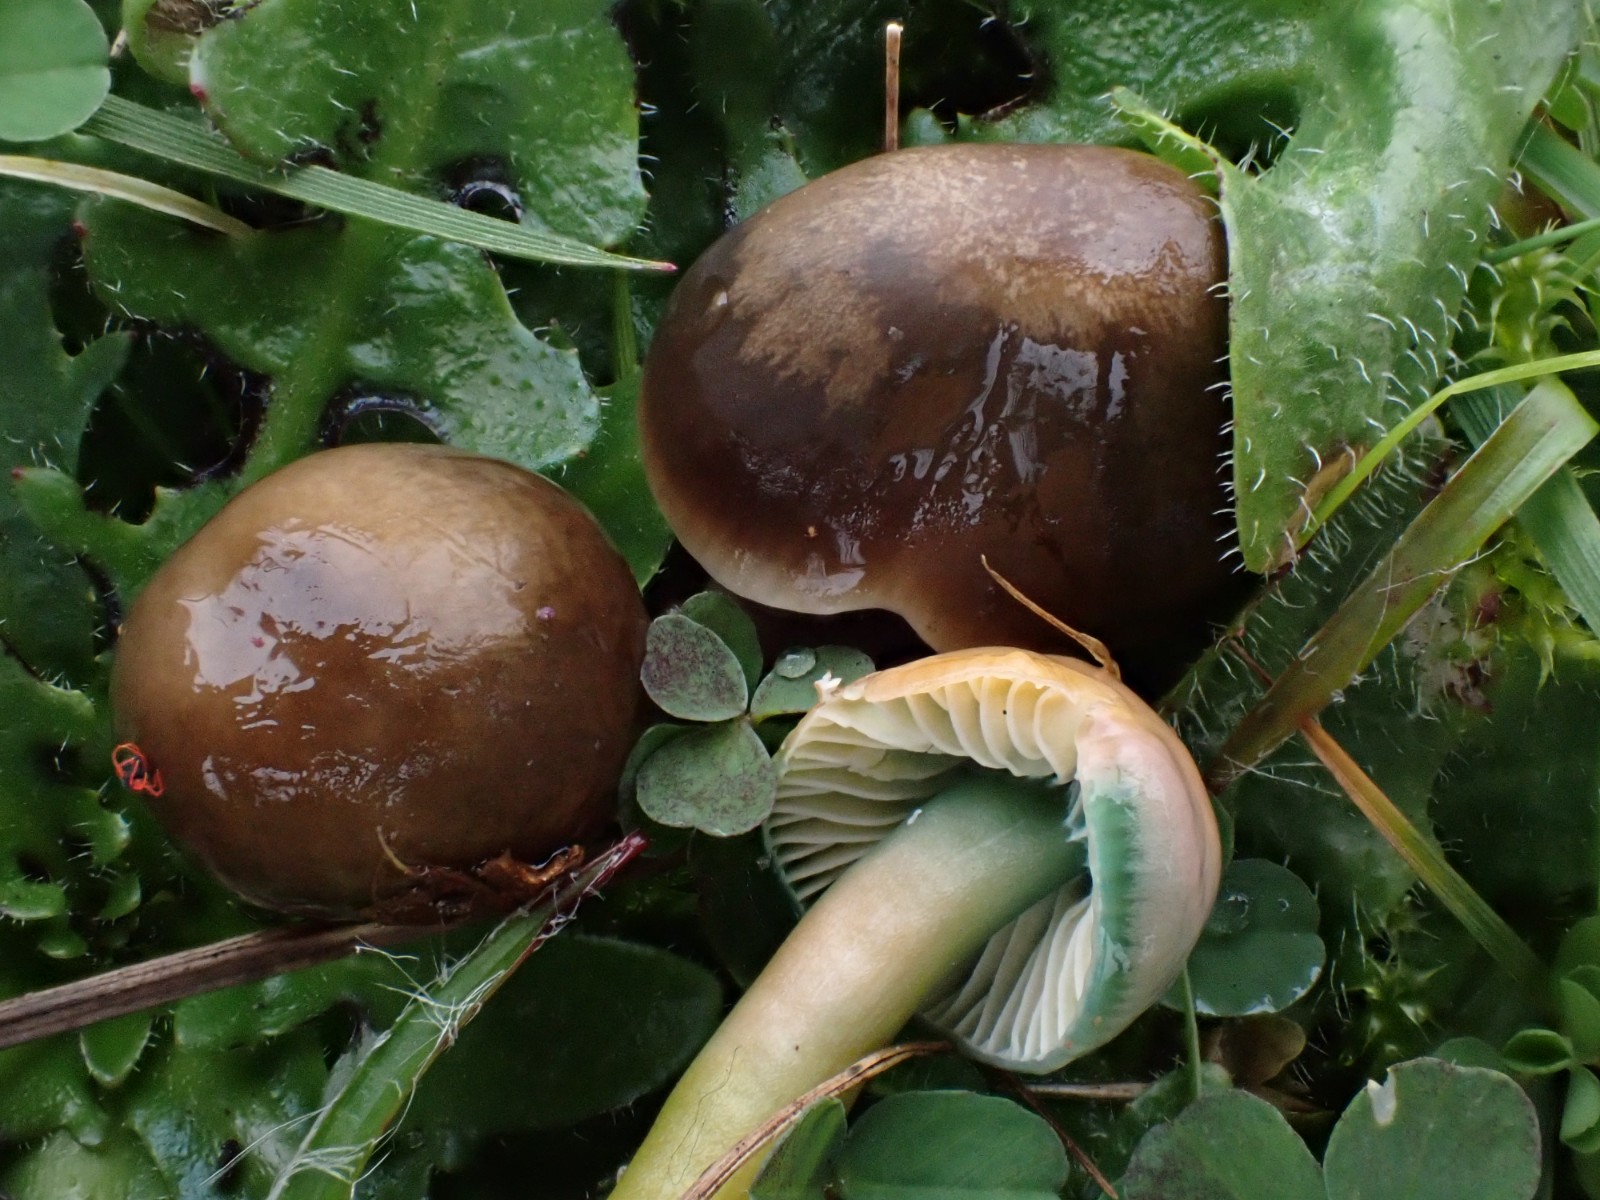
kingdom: Fungi
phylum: Basidiomycota
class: Agaricomycetes
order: Agaricales
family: Hygrophoraceae
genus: Gliophorus
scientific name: Gliophorus psittacinus
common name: papegøje-vokshat
